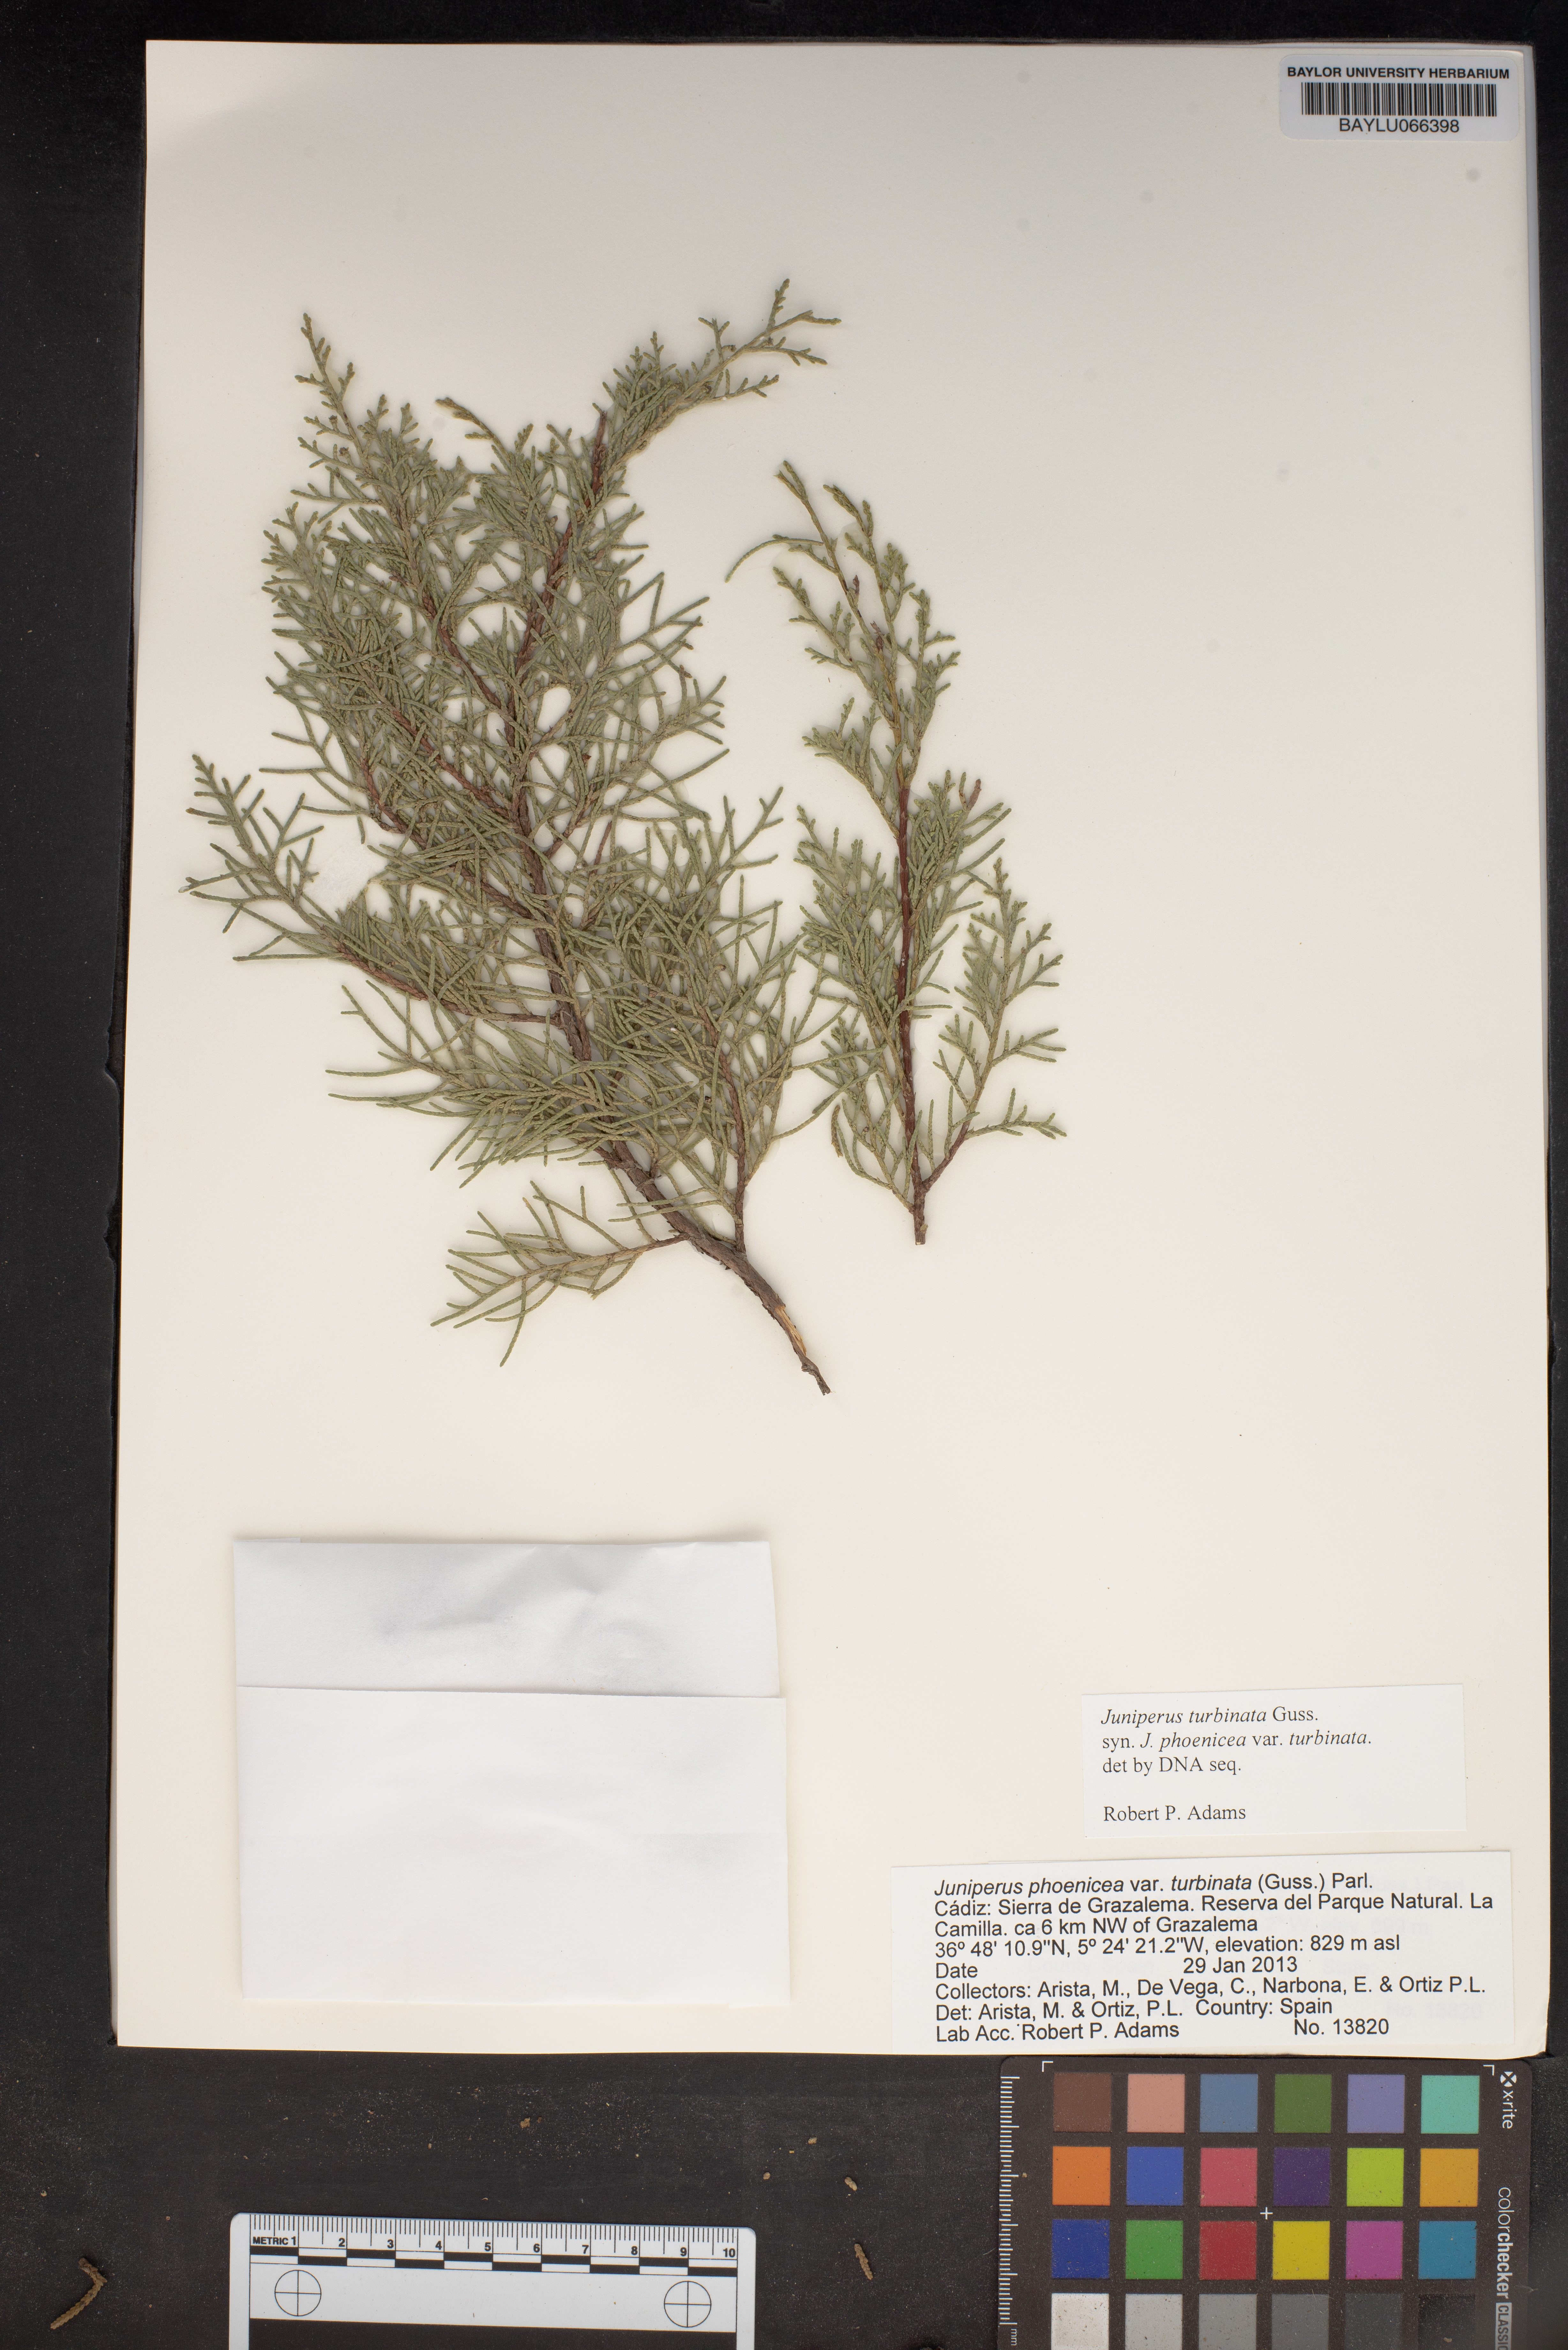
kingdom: Plantae
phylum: Tracheophyta
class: Pinopsida
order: Pinales
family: Cupressaceae
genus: Juniperus
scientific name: Juniperus phoenicea
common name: Phoenician juniper
